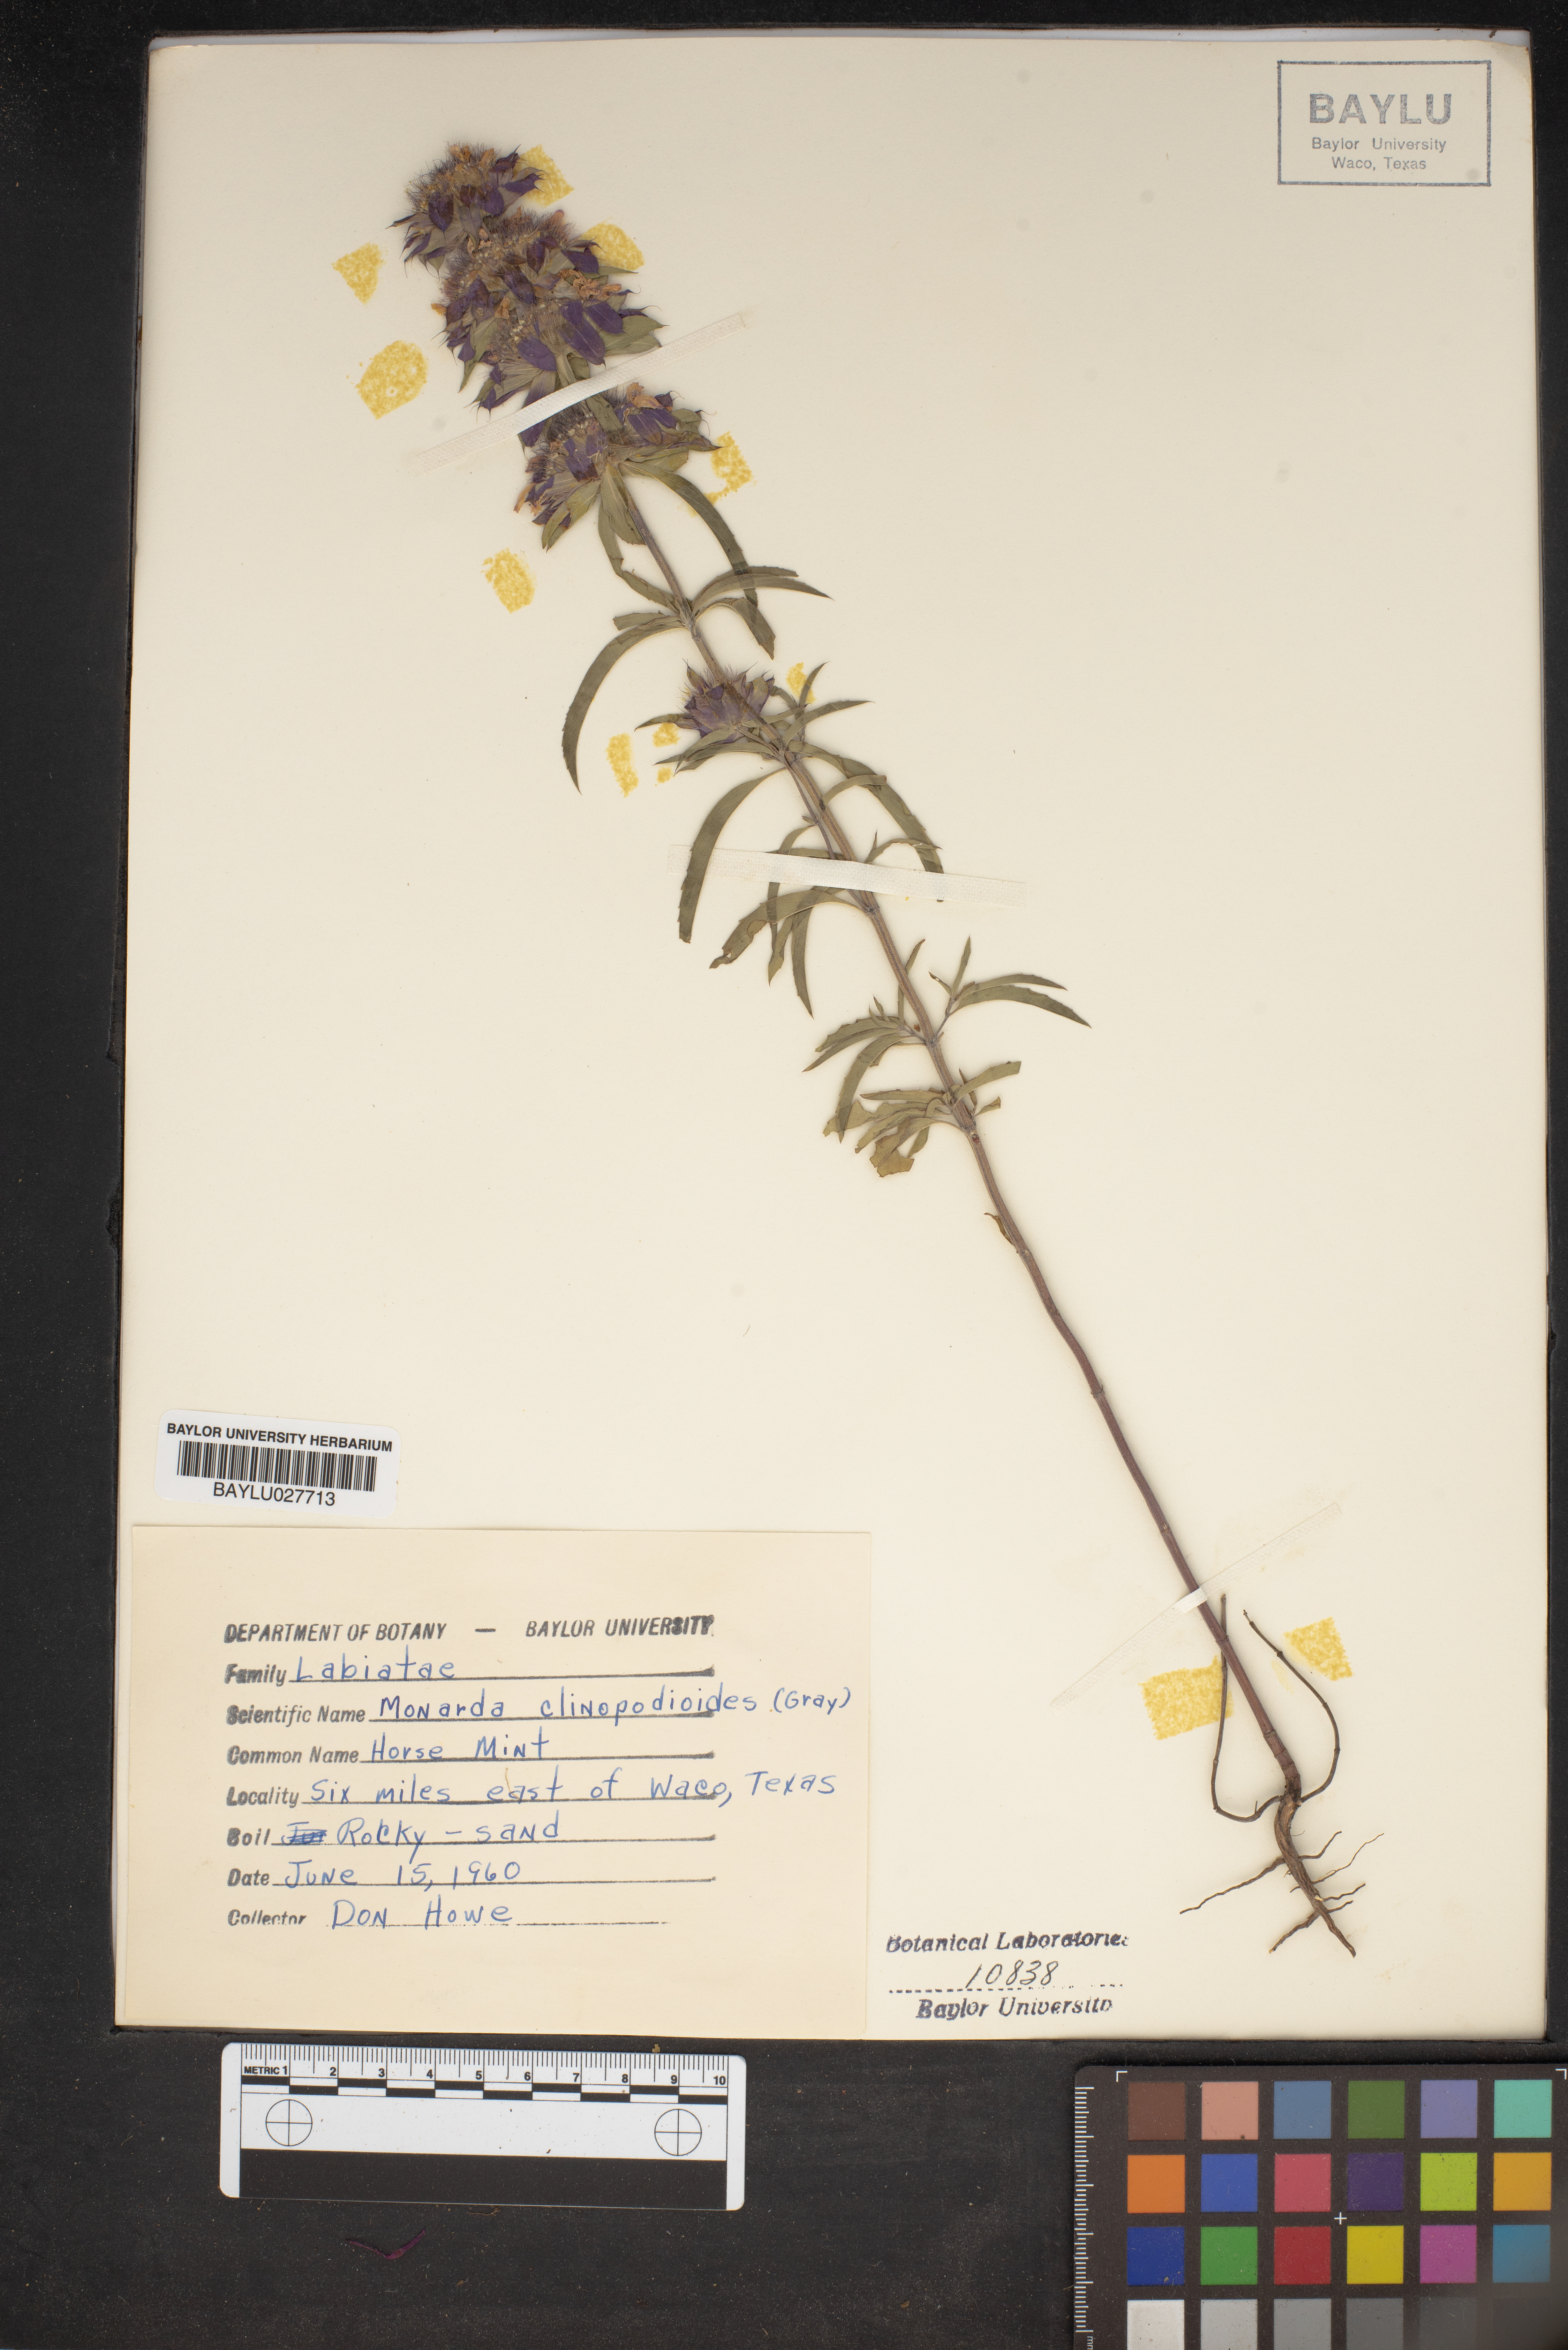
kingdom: Plantae
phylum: Tracheophyta
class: Magnoliopsida
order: Lamiales
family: Lamiaceae
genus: Monarda
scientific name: Monarda clinopodioides
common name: Basil beebalm
